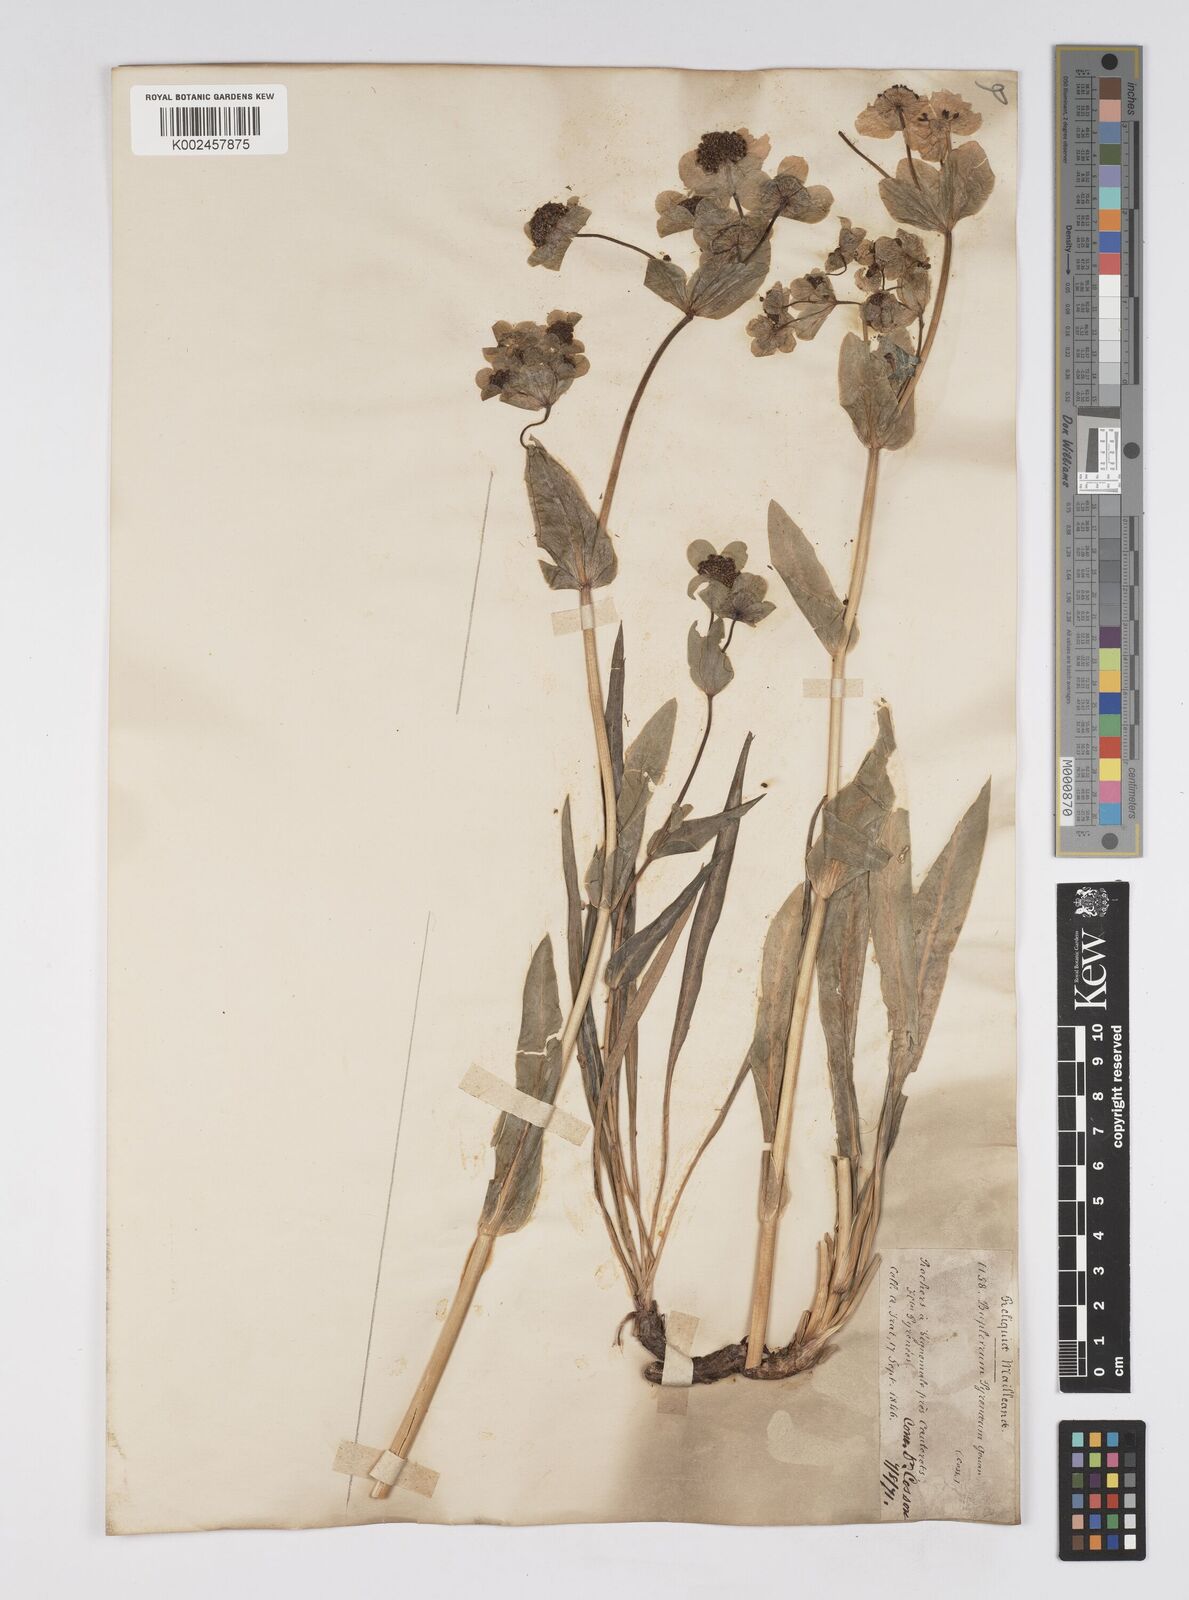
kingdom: Plantae
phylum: Tracheophyta
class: Magnoliopsida
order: Apiales
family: Apiaceae
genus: Bupleurum
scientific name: Bupleurum angulosum
